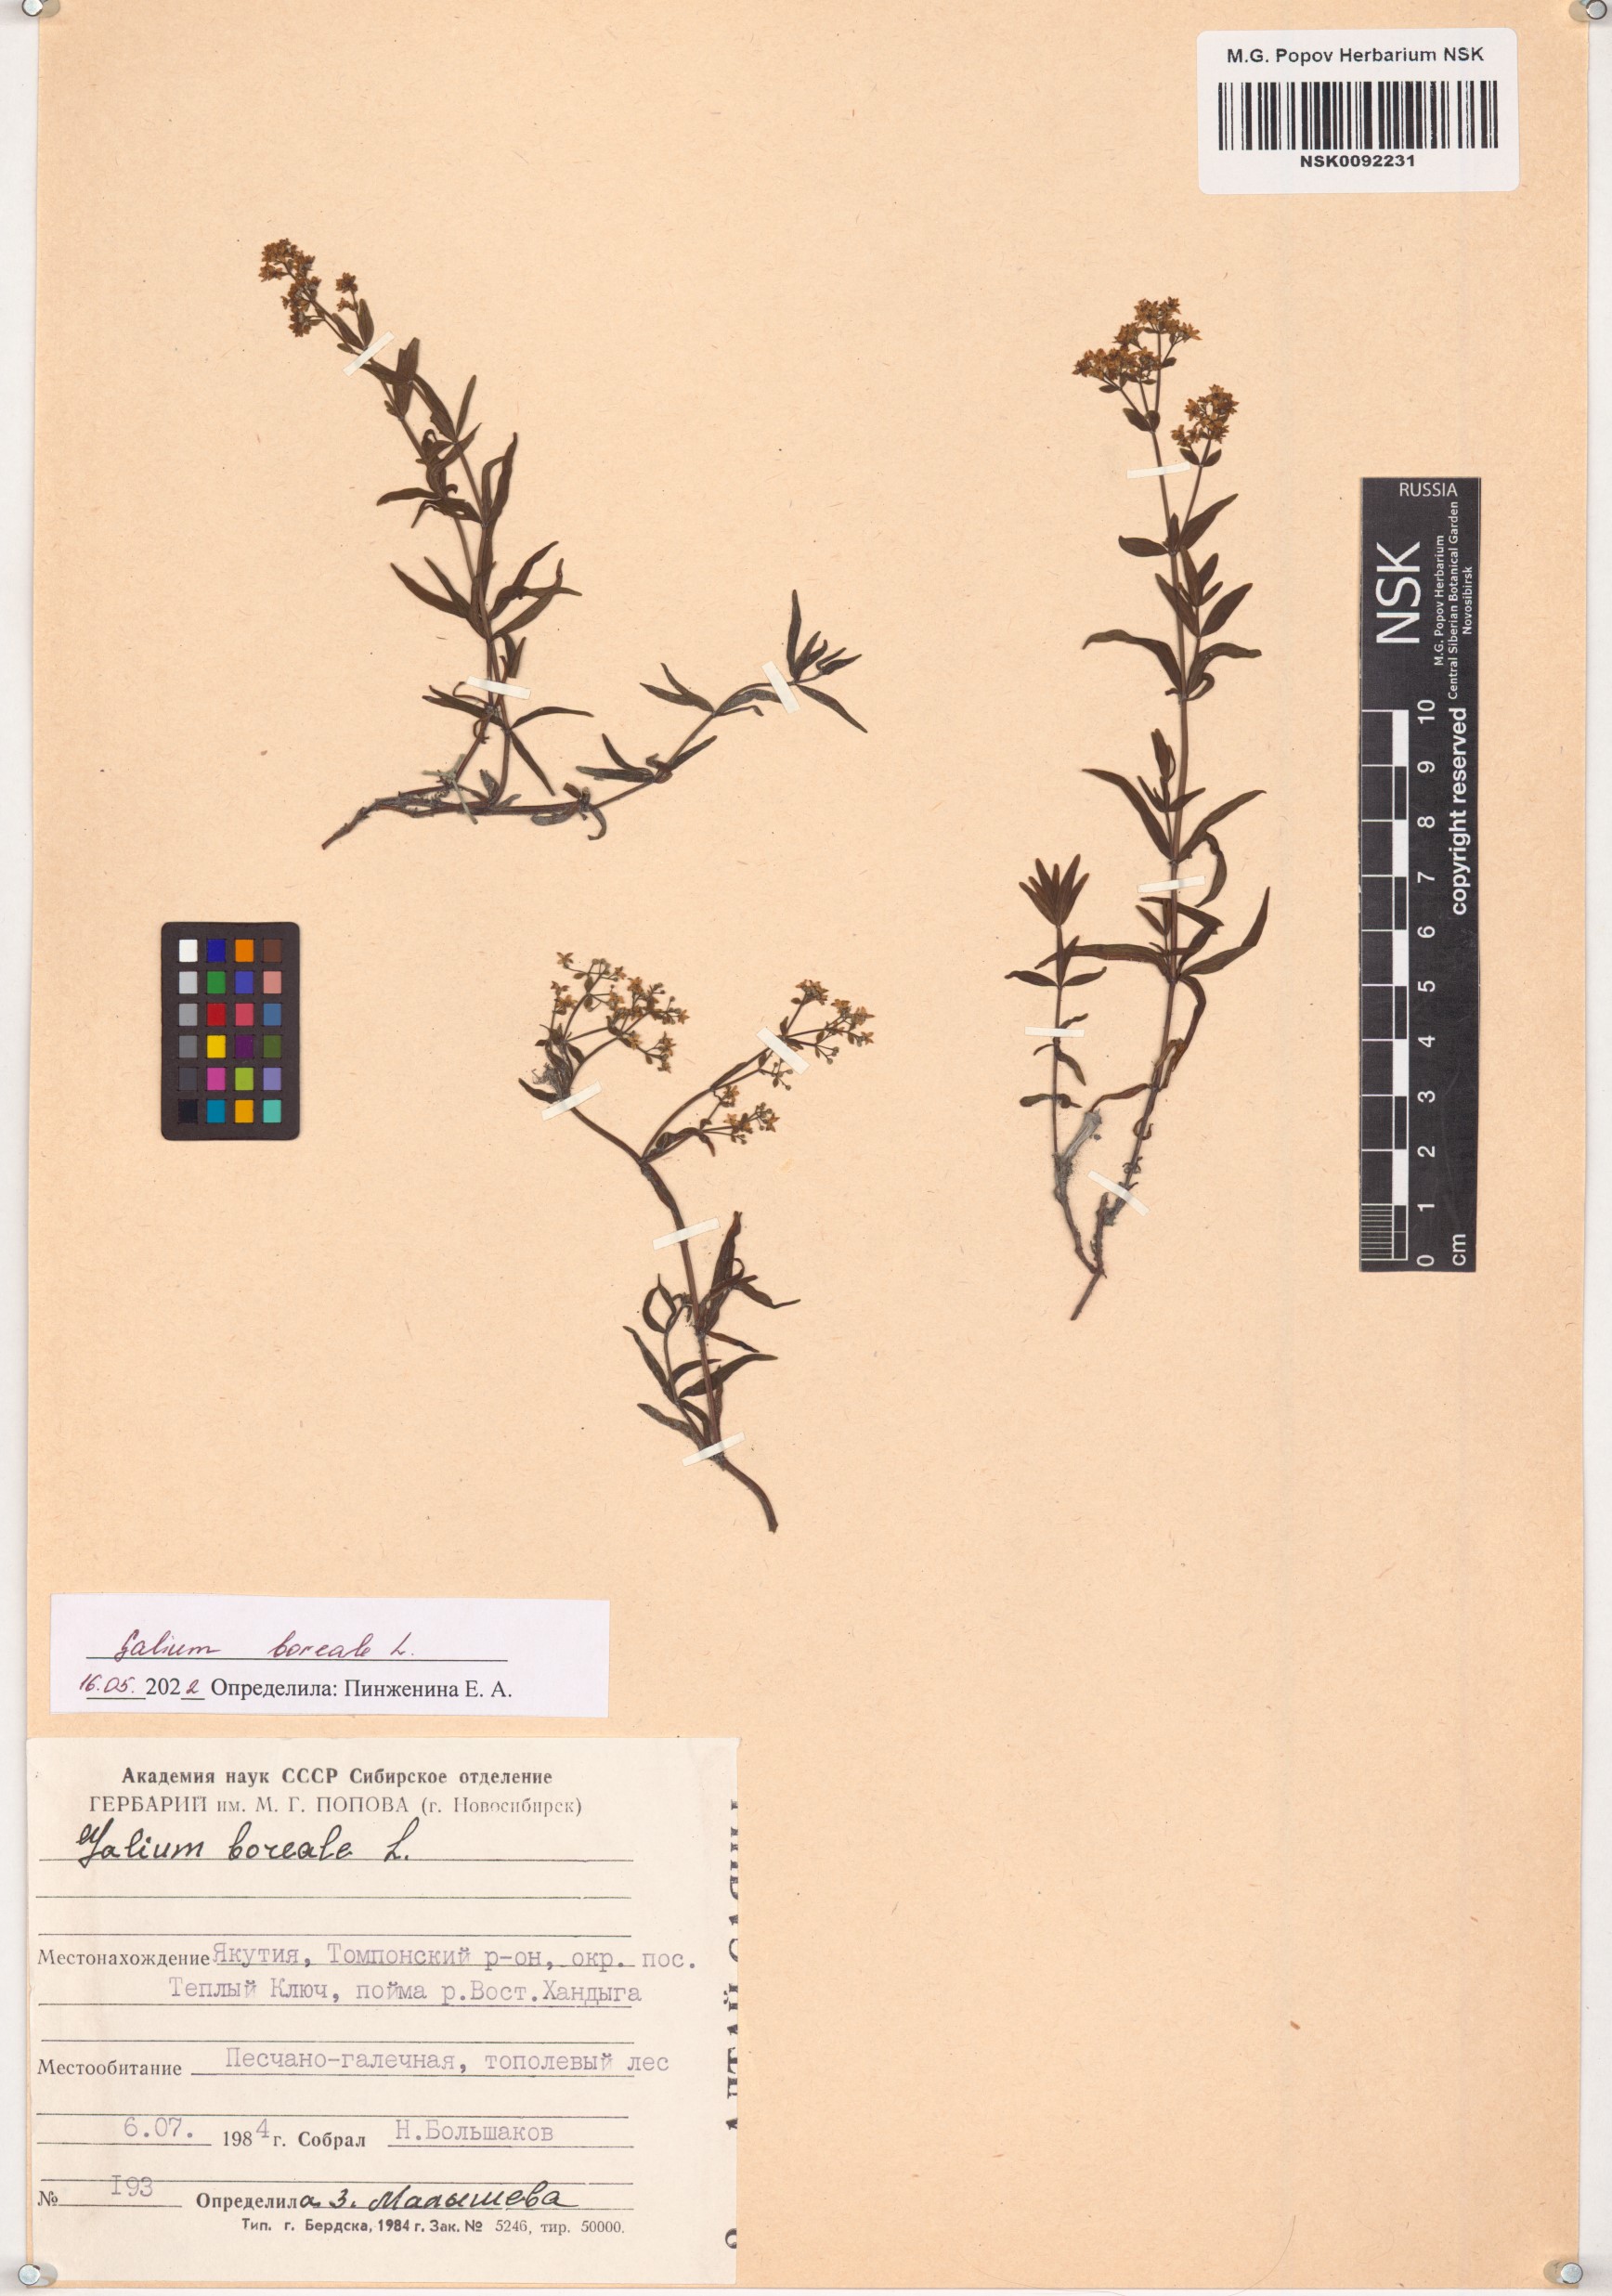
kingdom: Plantae
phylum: Tracheophyta
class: Magnoliopsida
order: Gentianales
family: Rubiaceae
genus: Galium
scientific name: Galium boreale
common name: Northern bedstraw
